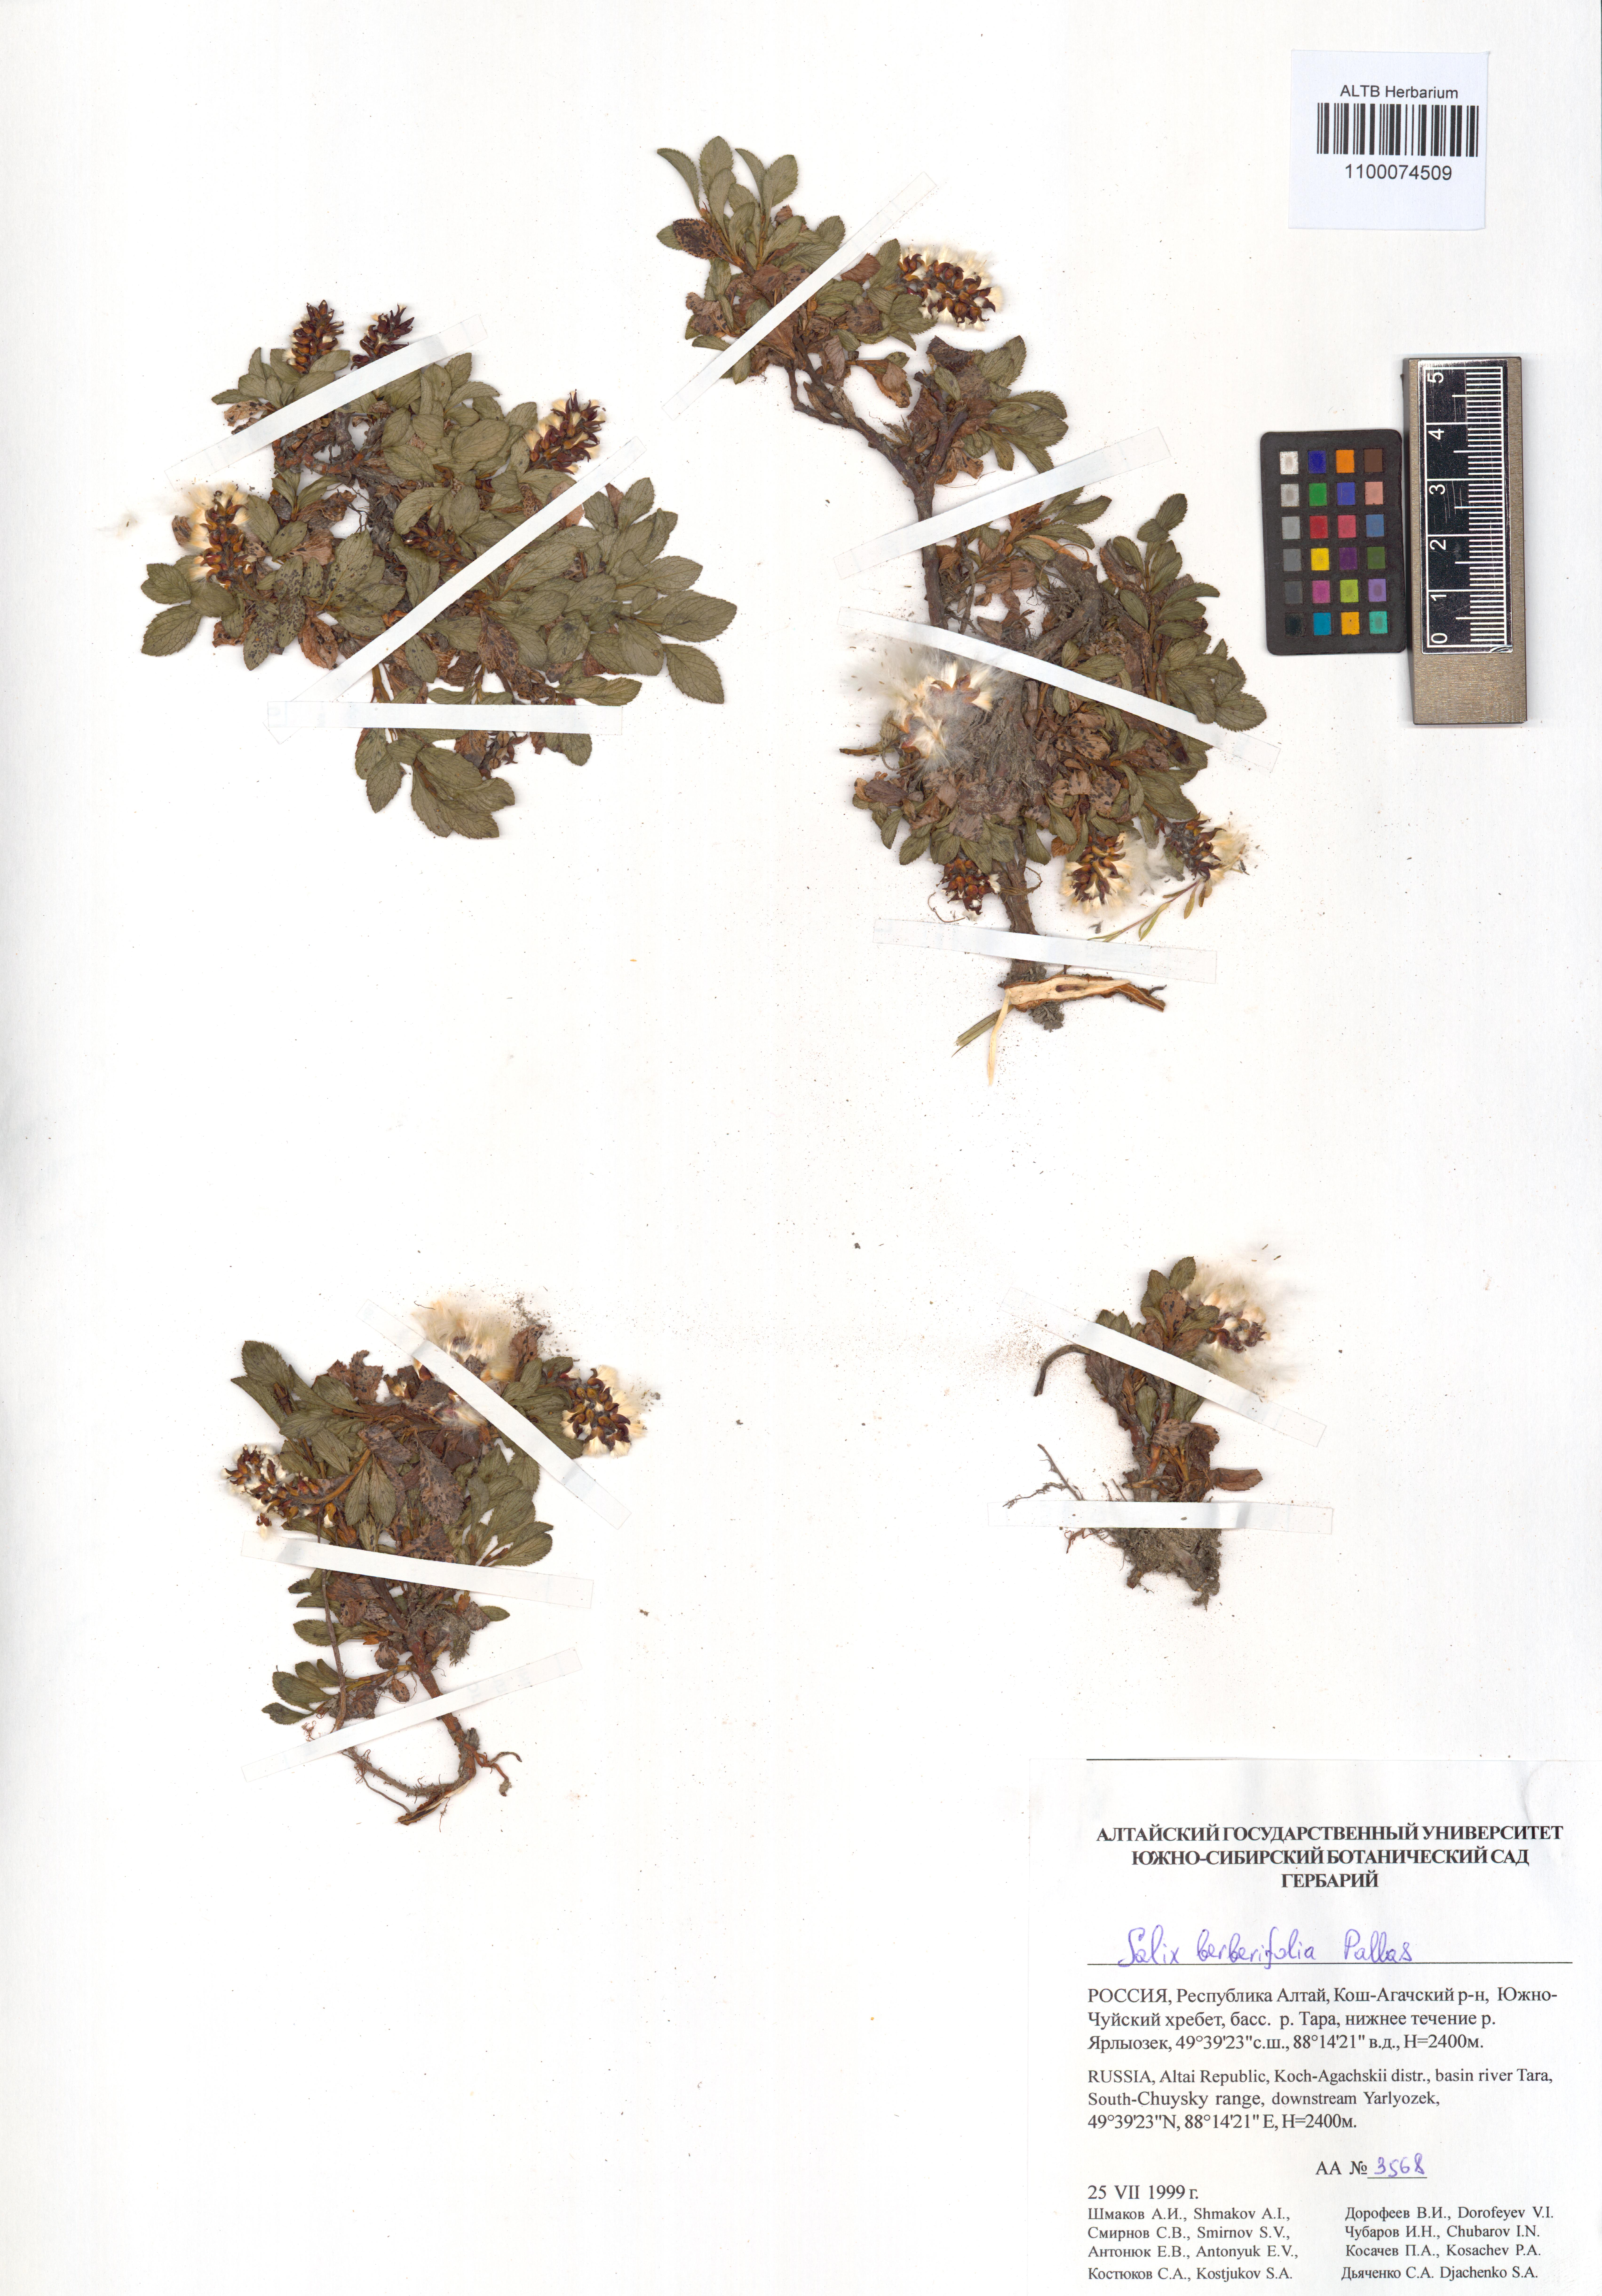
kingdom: Plantae
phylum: Tracheophyta
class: Magnoliopsida
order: Malpighiales
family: Salicaceae
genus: Salix
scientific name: Salix berberifolia
